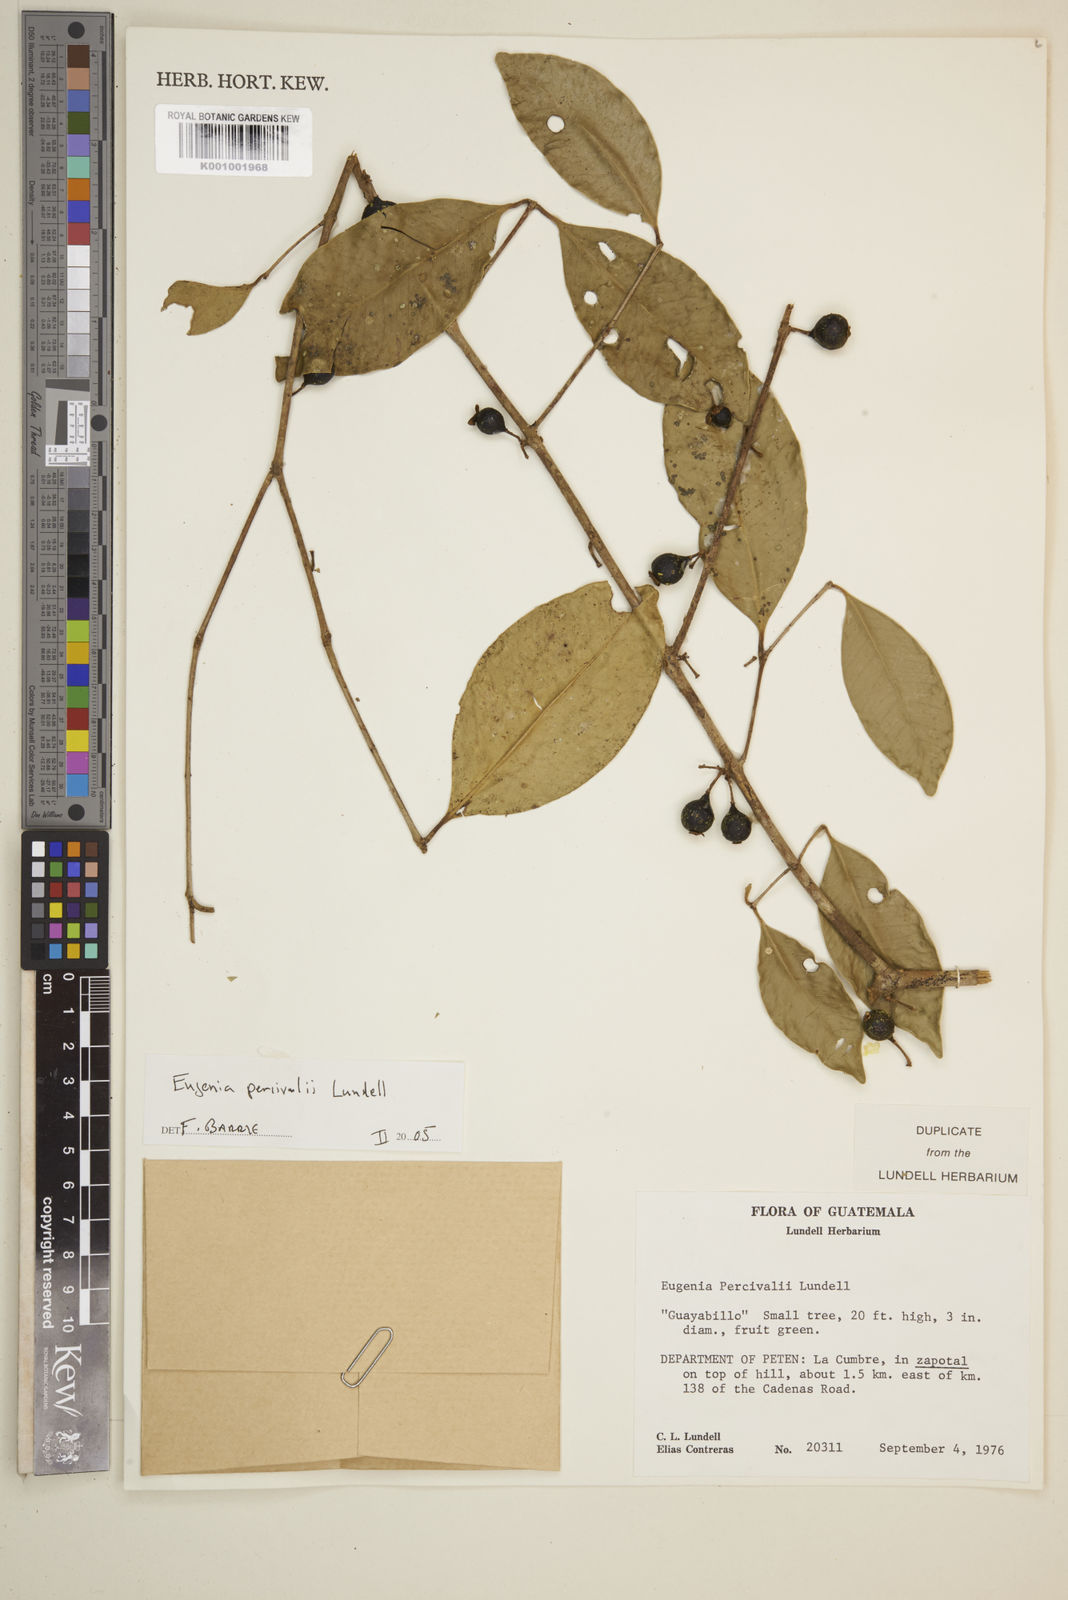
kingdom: Plantae
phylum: Tracheophyta
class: Magnoliopsida
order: Myrtales
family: Myrtaceae
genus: Eugenia
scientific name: Eugenia percivalii
